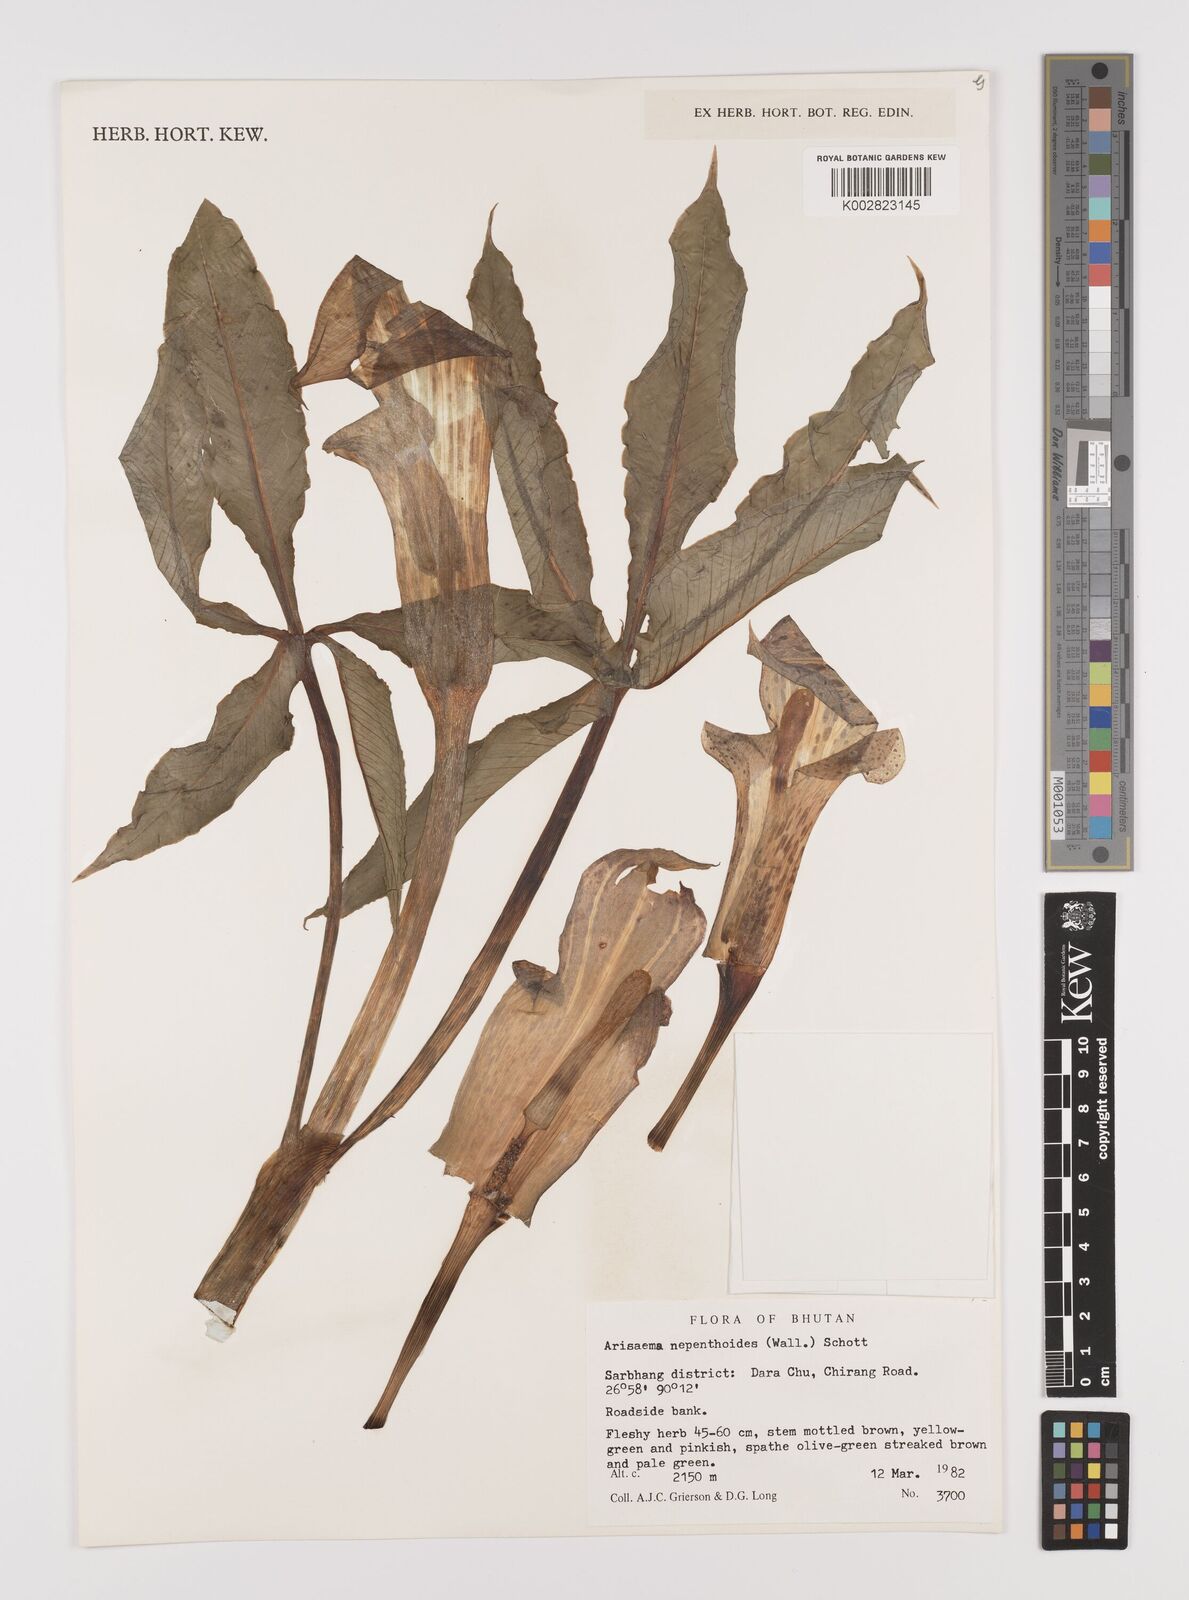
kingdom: Plantae
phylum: Tracheophyta
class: Liliopsida
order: Alismatales
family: Araceae
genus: Arisaema
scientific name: Arisaema nepenthoides
